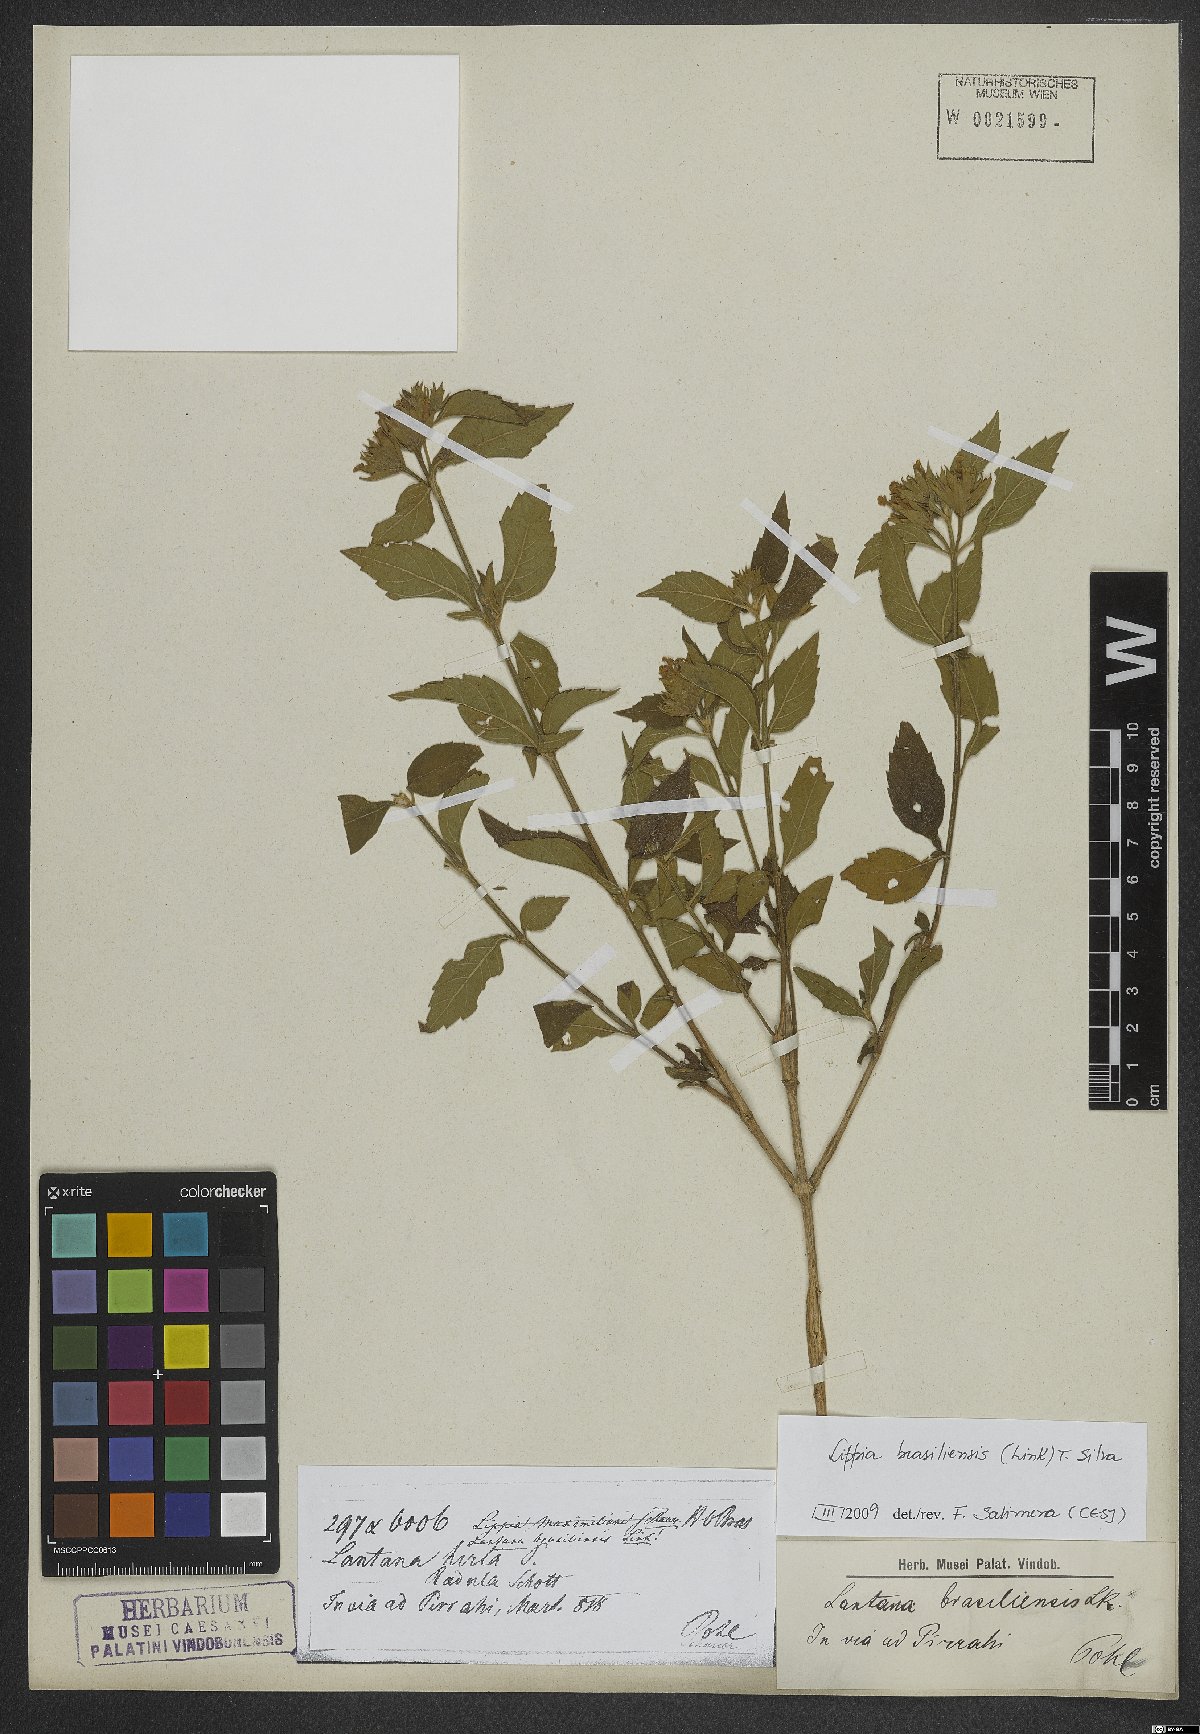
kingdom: Plantae
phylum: Tracheophyta
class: Magnoliopsida
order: Lamiales
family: Verbenaceae
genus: Lippia
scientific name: Lippia brasiliensis
